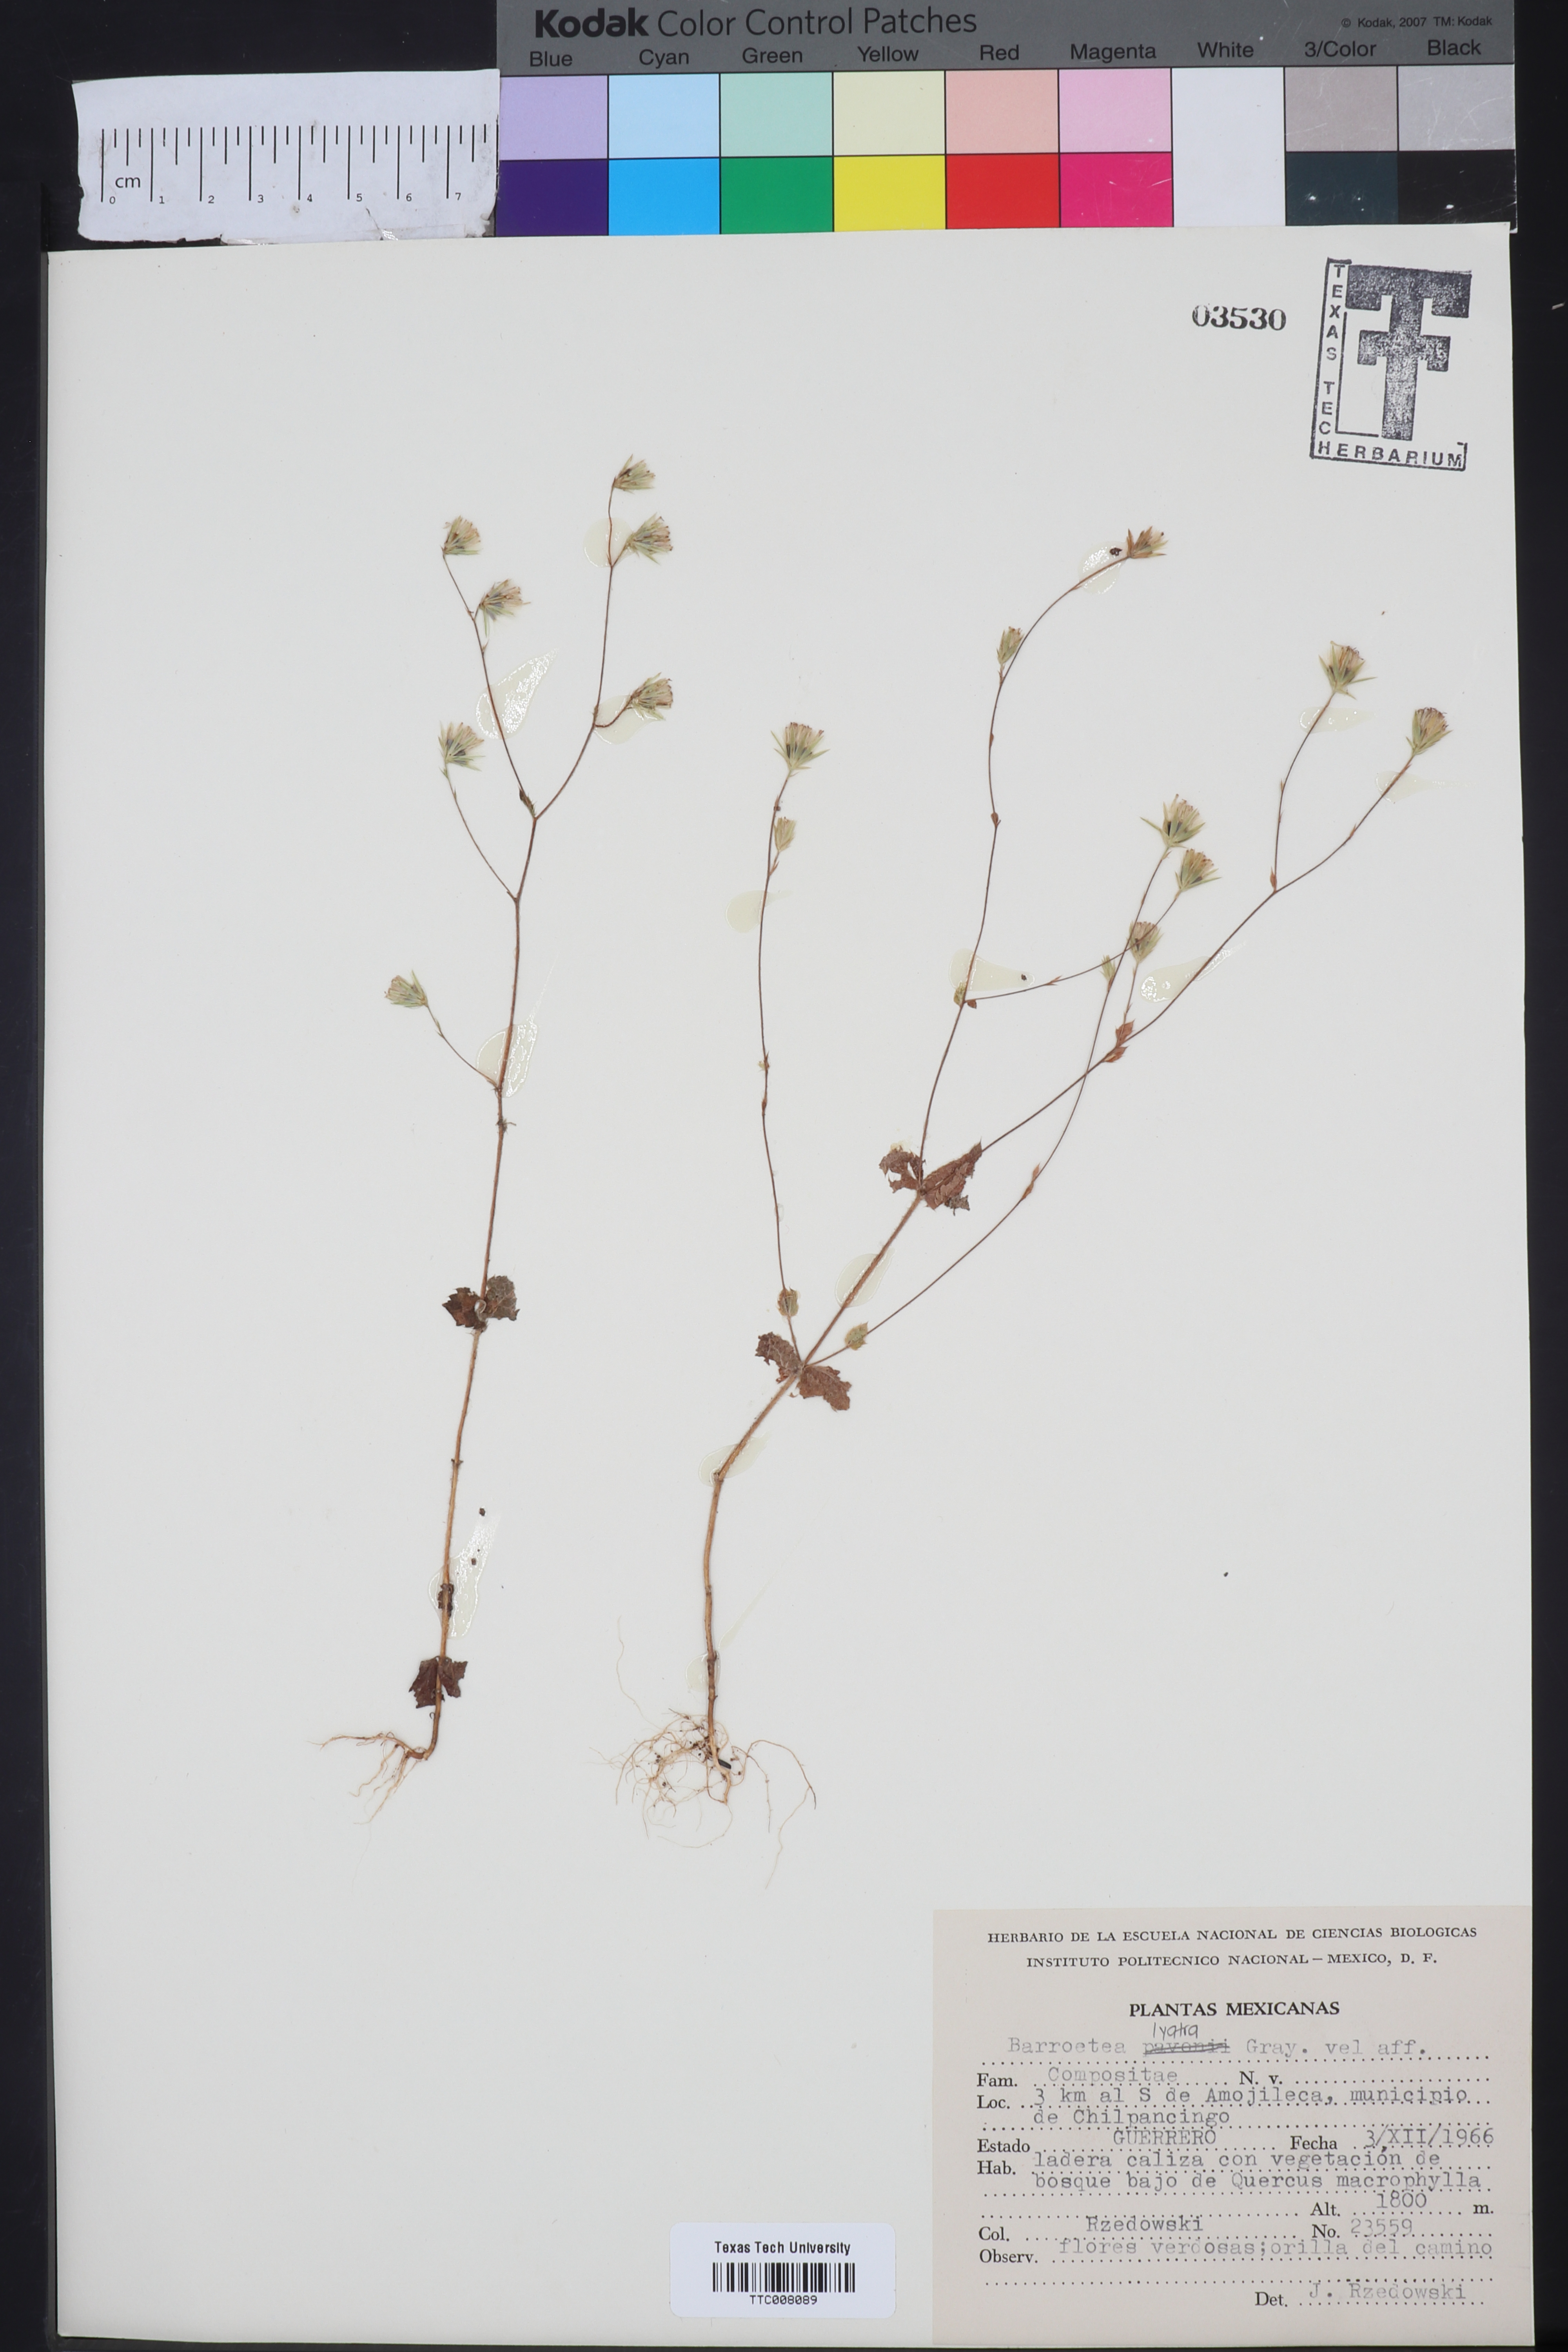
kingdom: Plantae
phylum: Tracheophyta
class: Magnoliopsida
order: Asterales
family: Asteraceae
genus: Brickellia
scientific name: Brickellia pavonii
